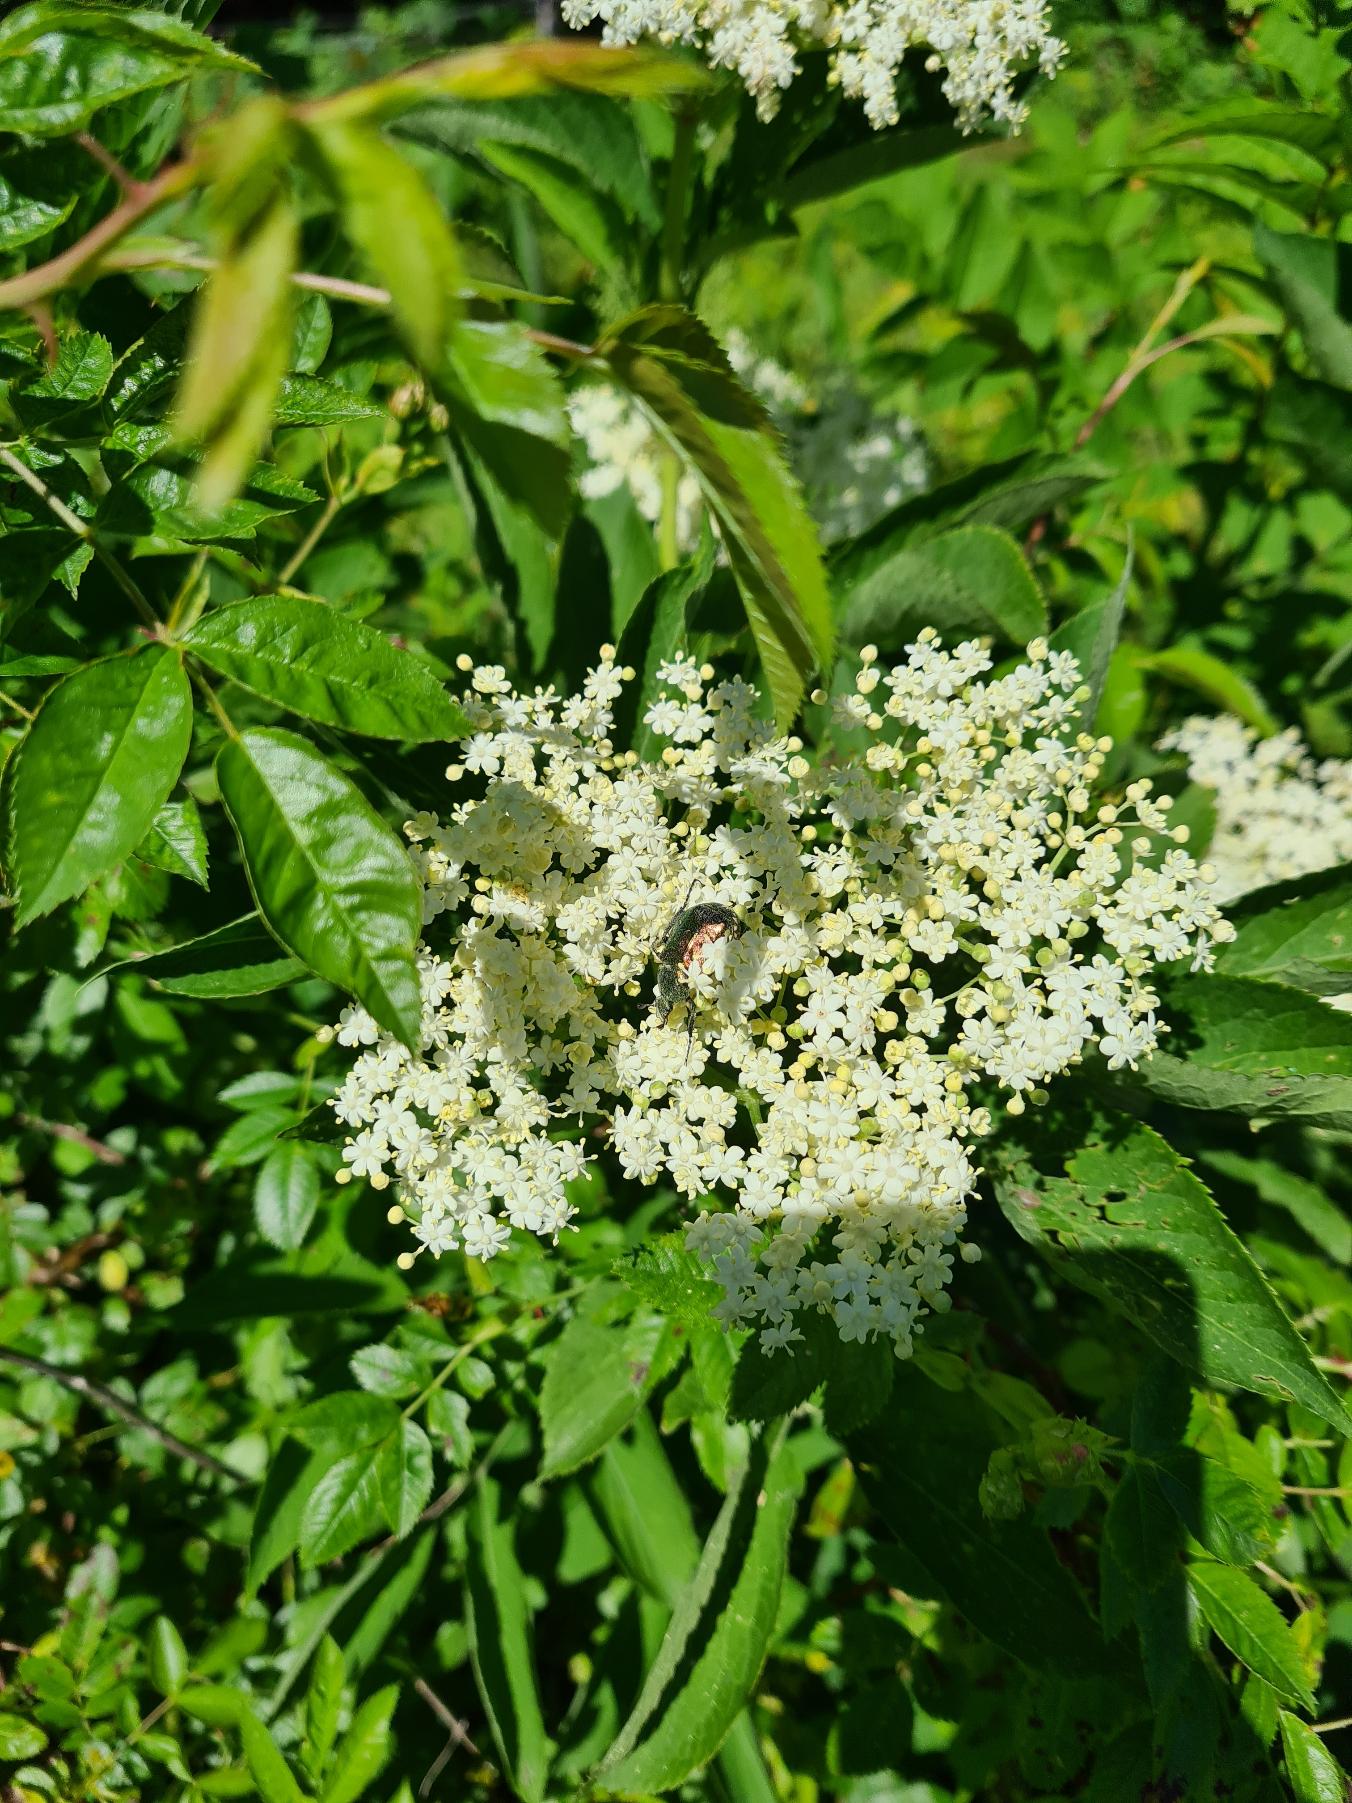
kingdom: Animalia
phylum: Arthropoda
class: Insecta
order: Coleoptera
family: Scarabaeidae
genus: Gnorimus
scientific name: Gnorimus nobilis
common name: Grøn pragttorbist
